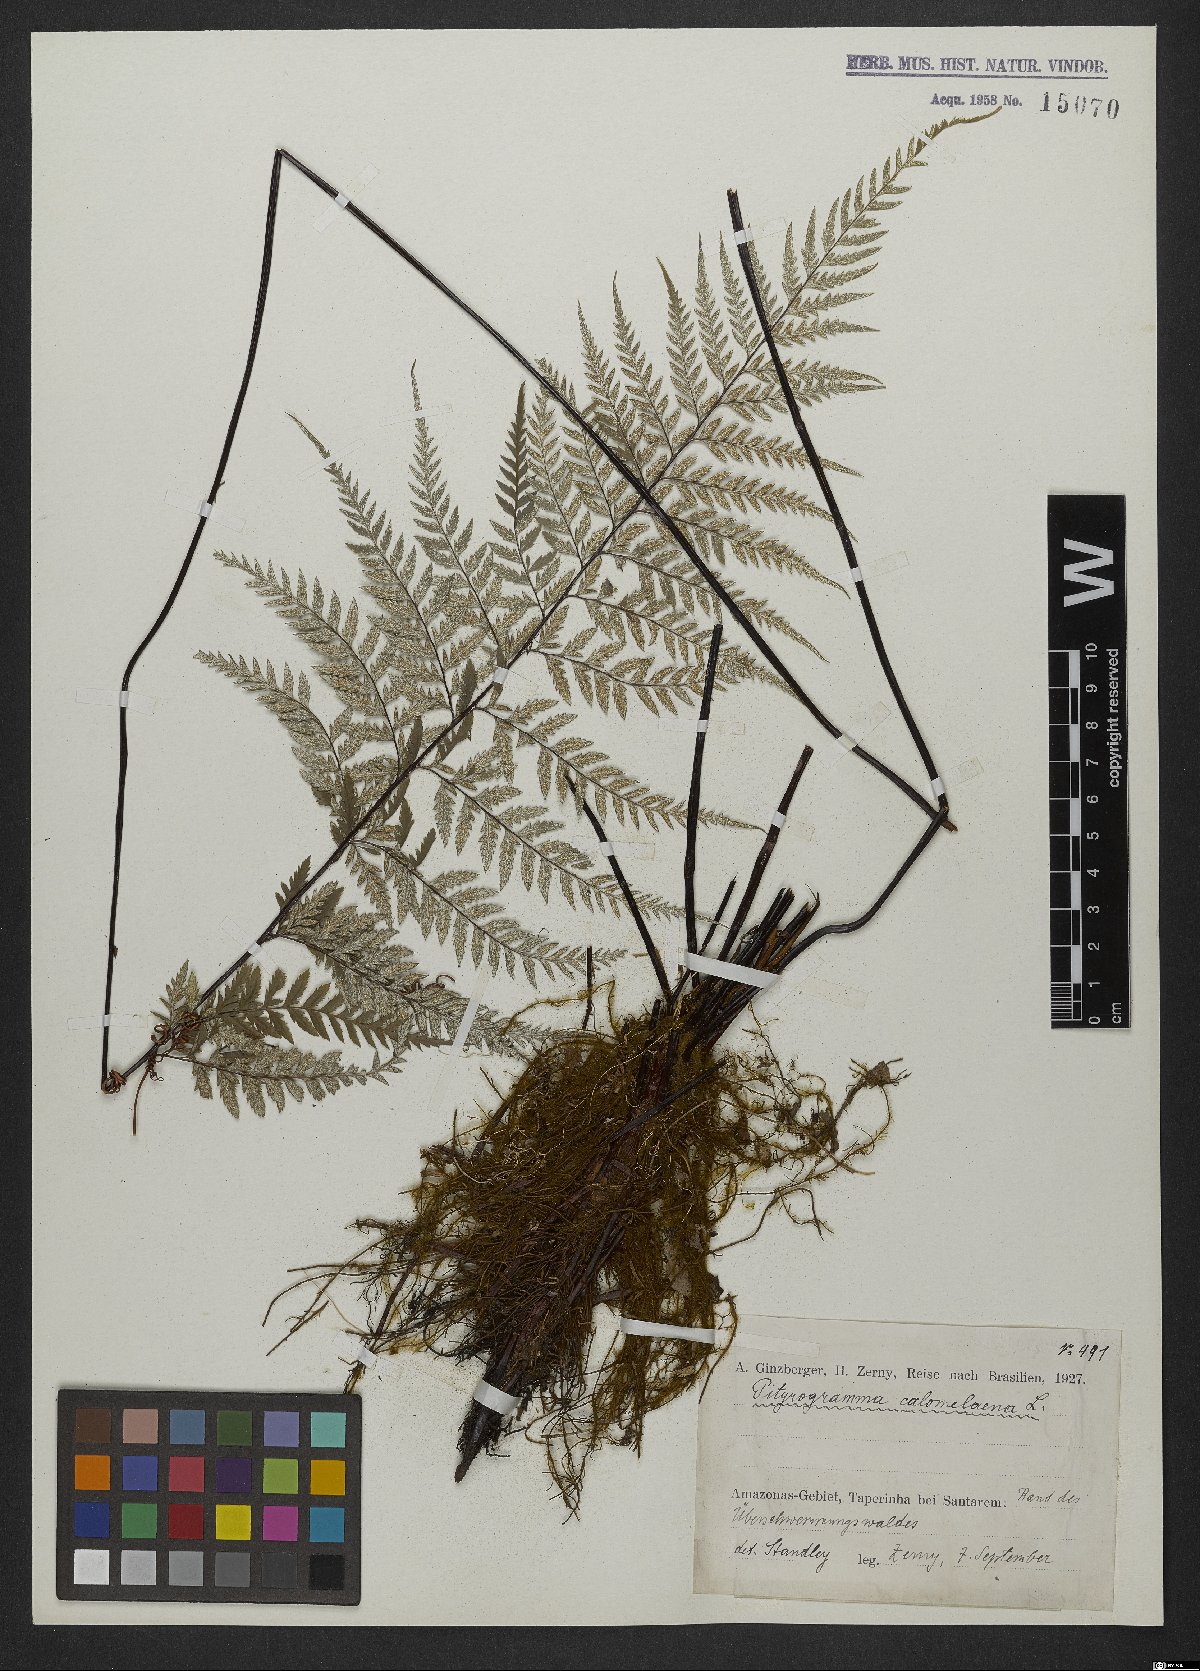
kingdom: Plantae
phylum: Tracheophyta
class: Polypodiopsida
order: Polypodiales
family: Pteridaceae
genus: Pityrogramma
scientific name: Pityrogramma calomelanos
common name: Dixie silverback fern
